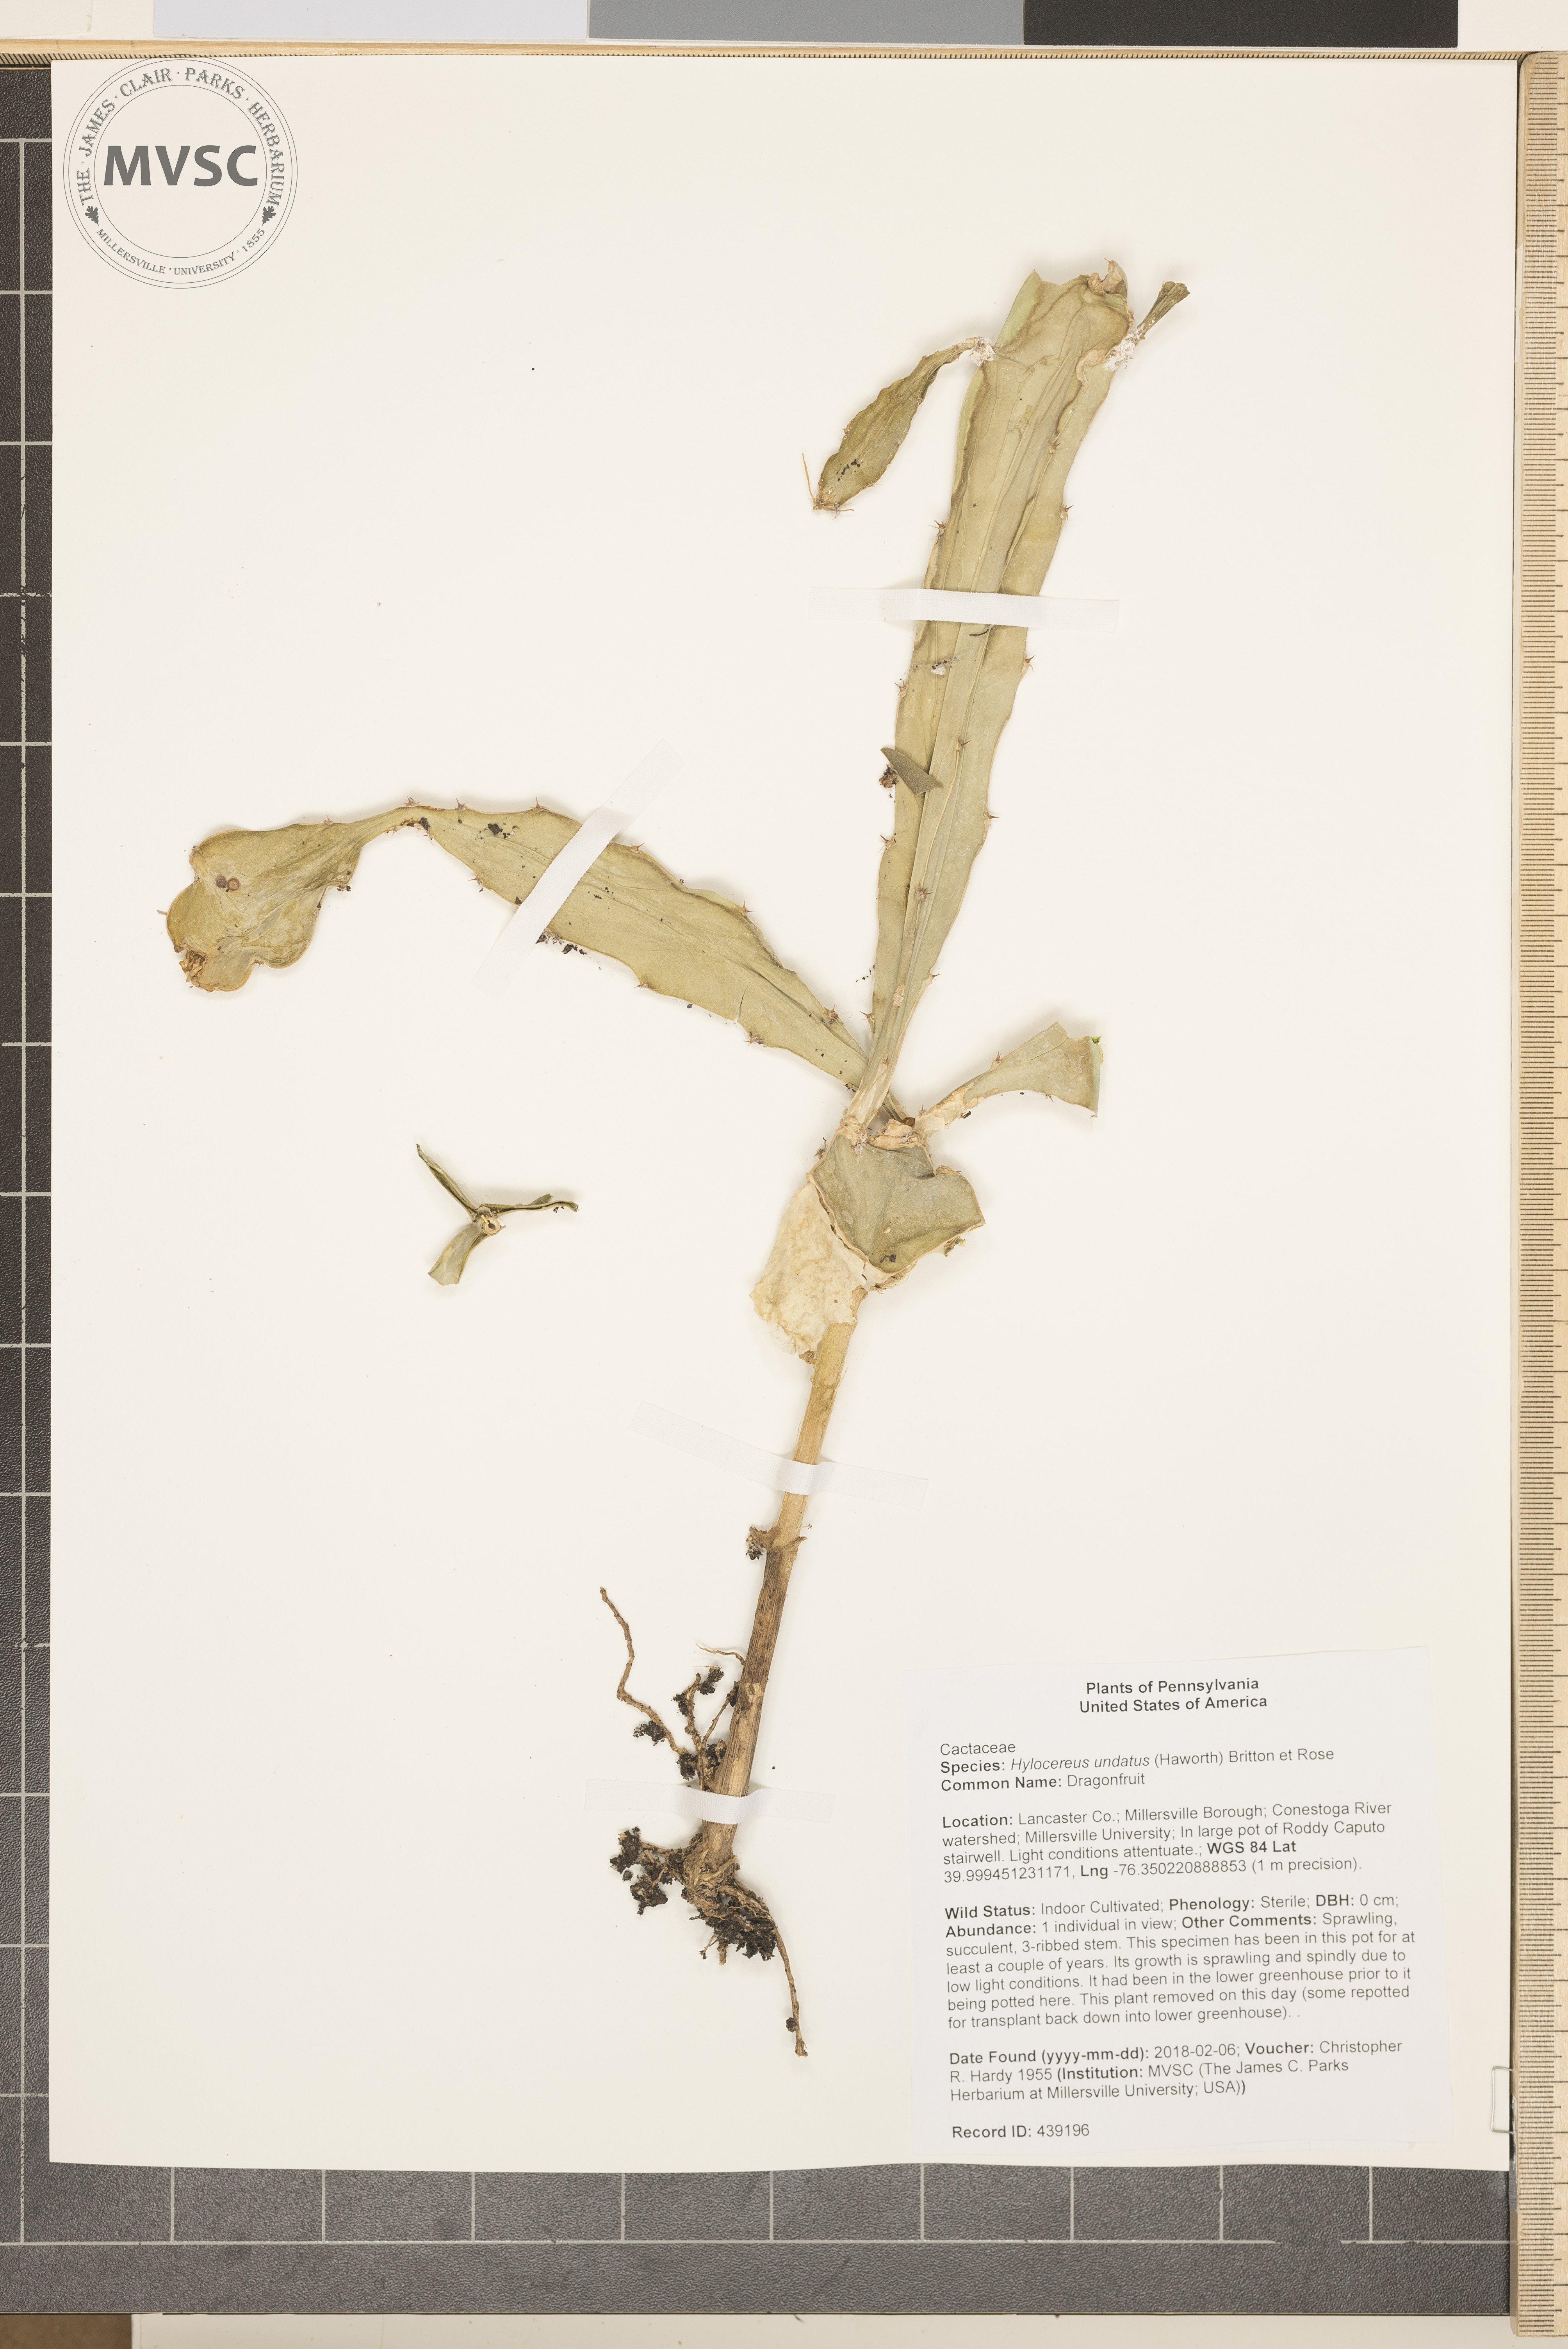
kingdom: Plantae
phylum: Tracheophyta
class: Magnoliopsida
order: Caryophyllales
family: Cactaceae
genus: Selenicereus
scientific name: Selenicereus undatus
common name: Dragonfruit
